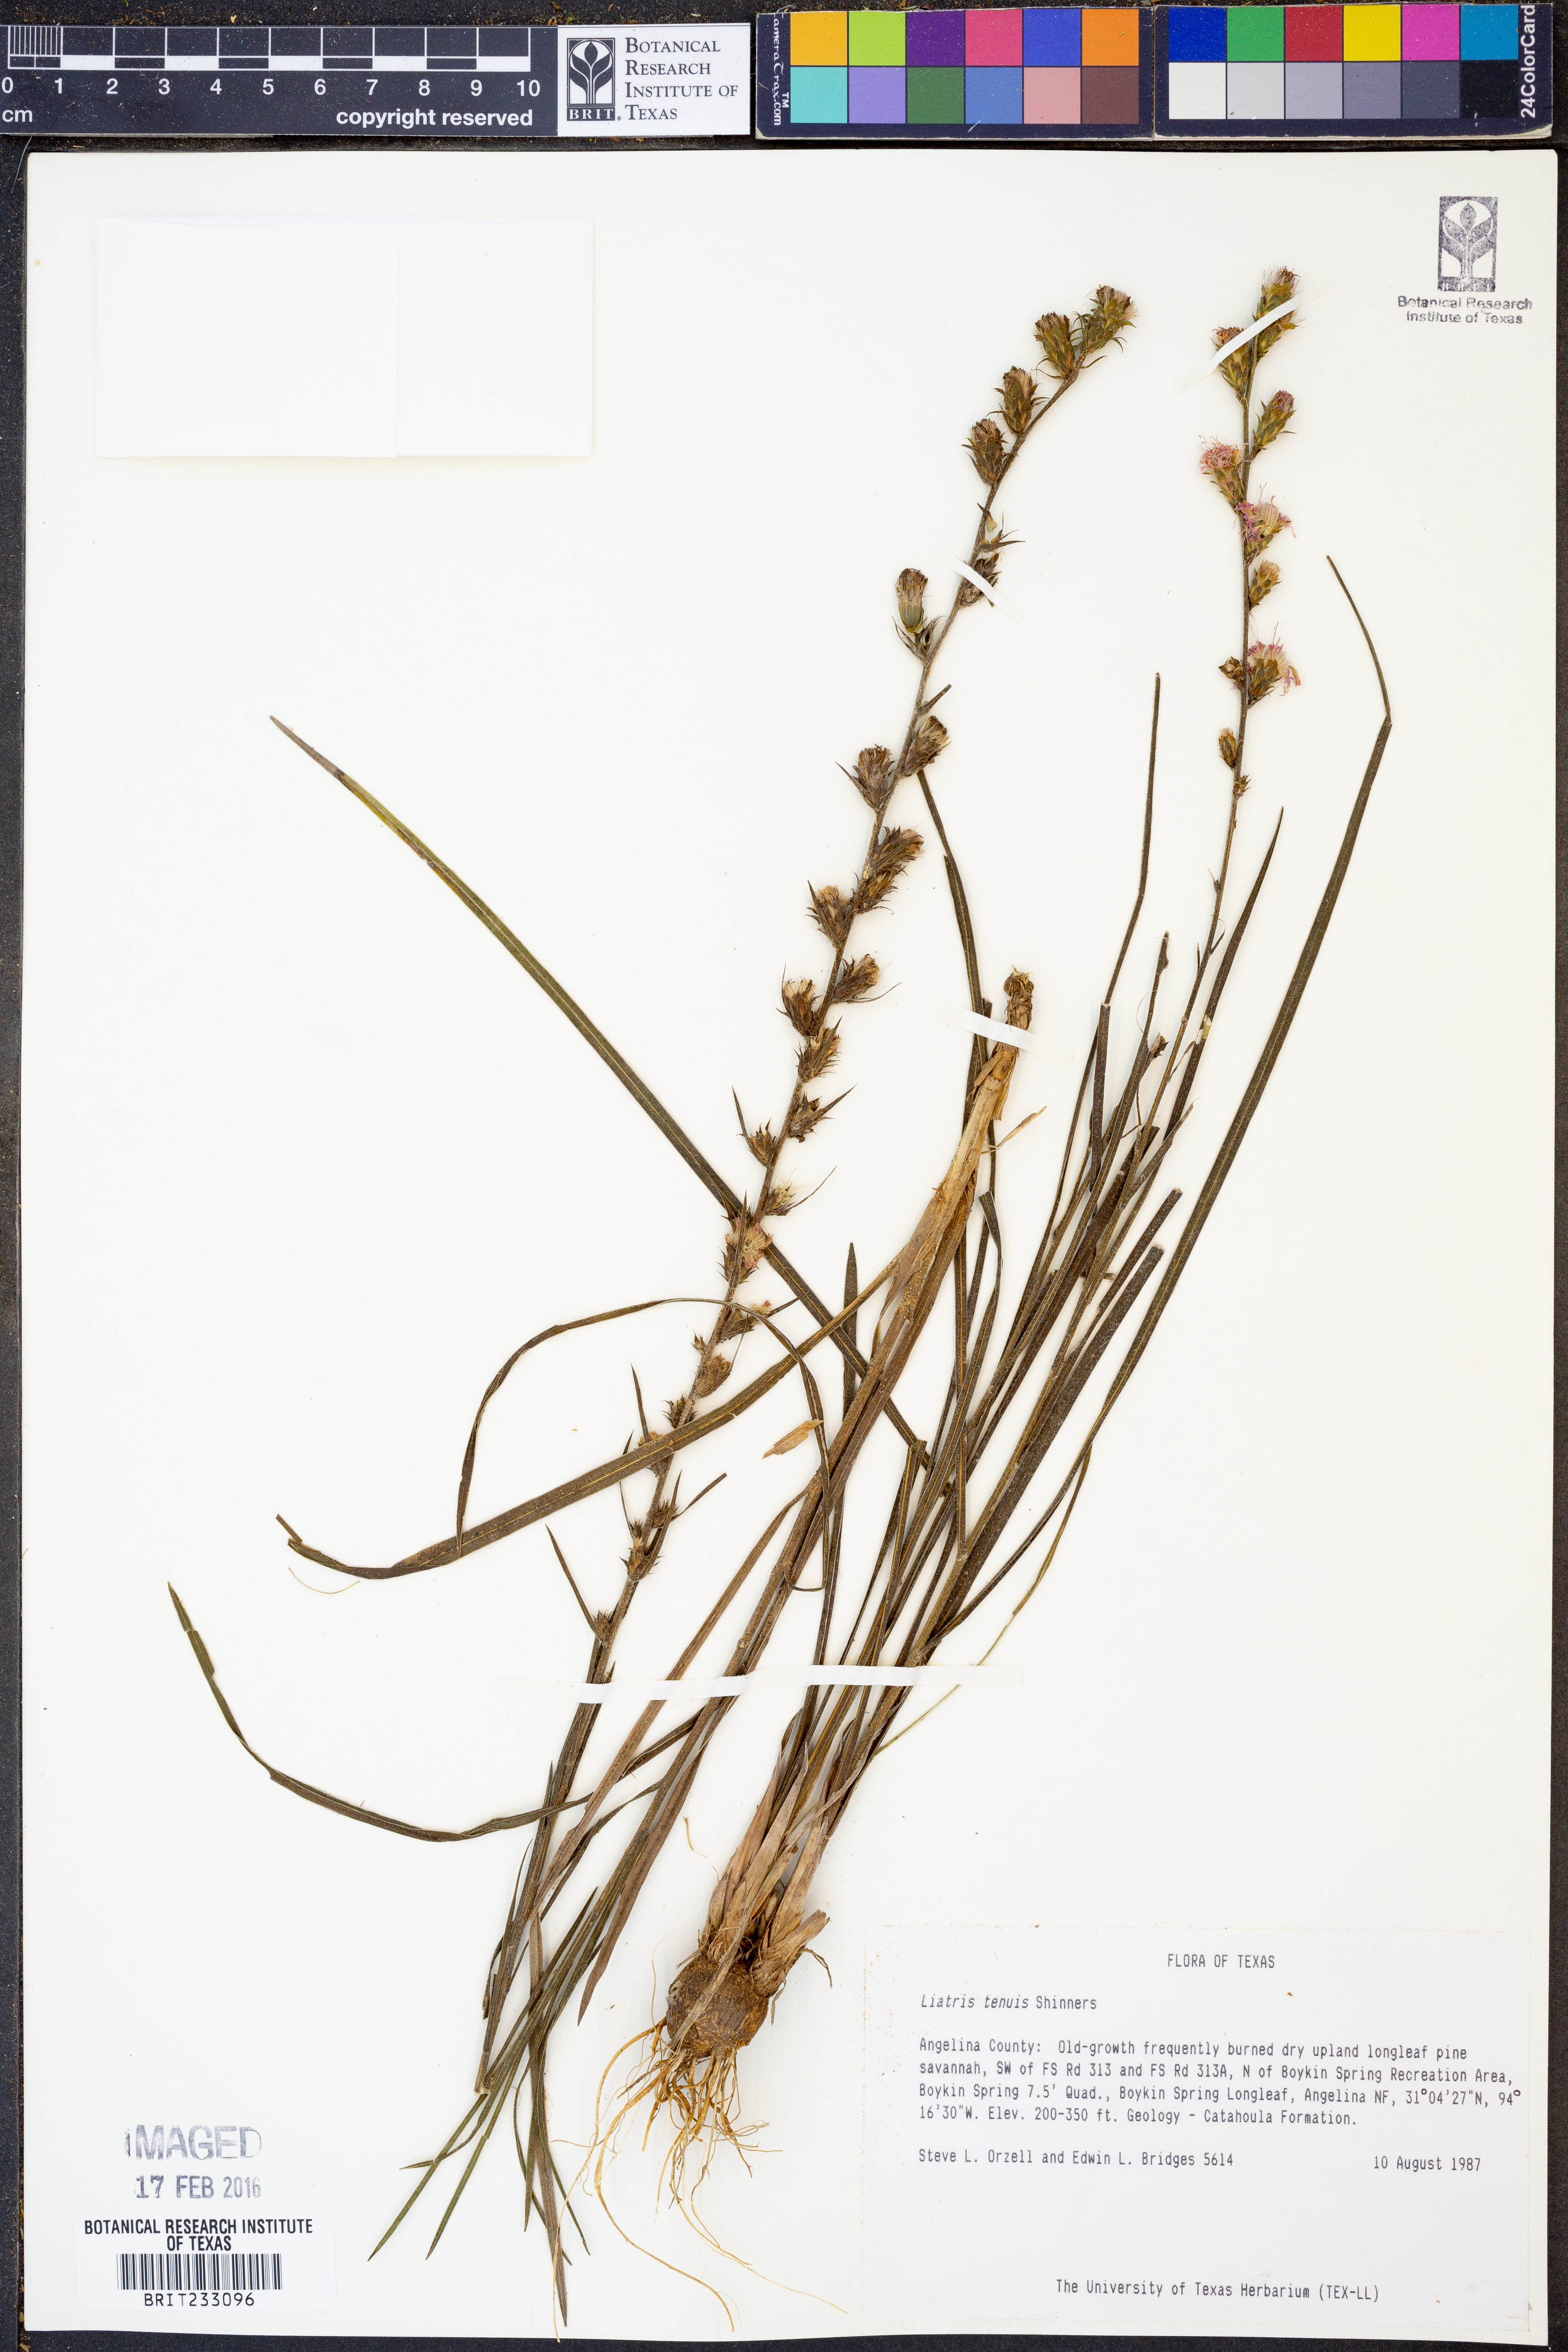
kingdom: Plantae
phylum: Tracheophyta
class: Liliopsida
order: Poales
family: Cyperaceae
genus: Schoenoplectiella
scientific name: Schoenoplectiella hallii
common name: Hall's bullrush
